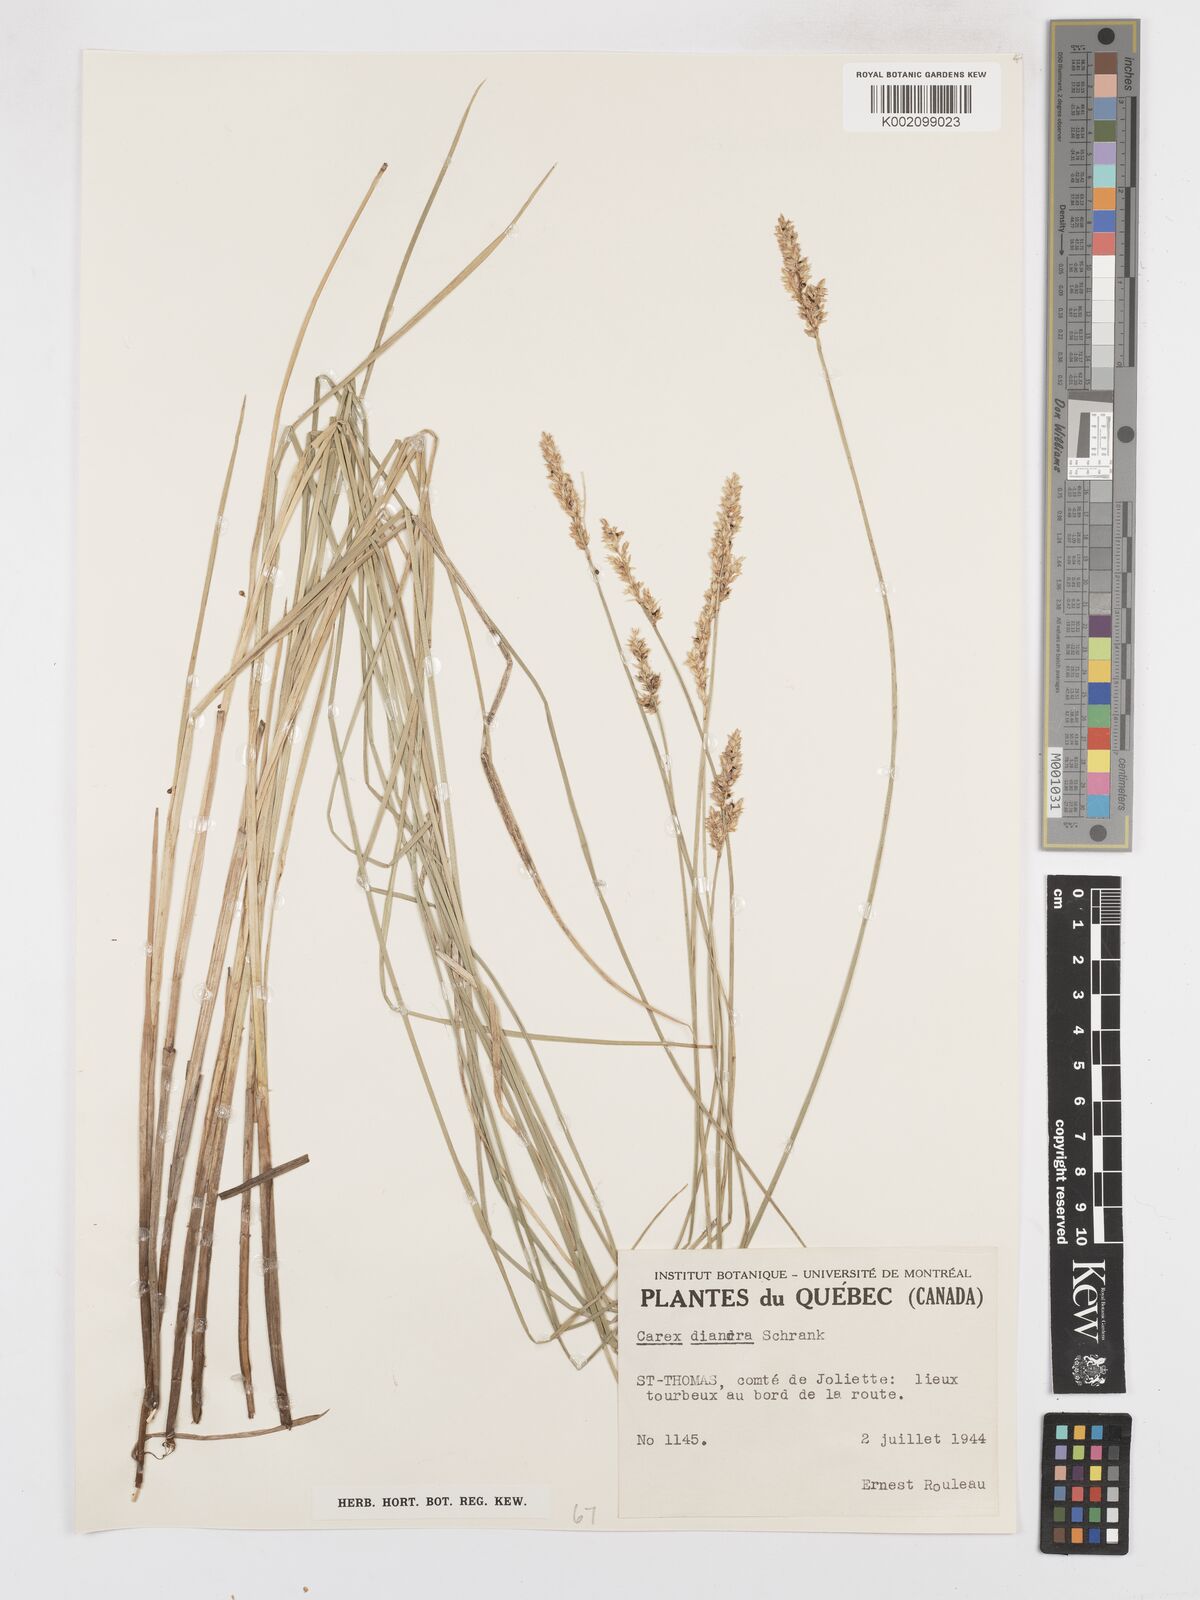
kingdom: Plantae
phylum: Tracheophyta
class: Liliopsida
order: Poales
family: Cyperaceae
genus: Carex
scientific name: Carex diandra
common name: Lesser tussock-sedge
